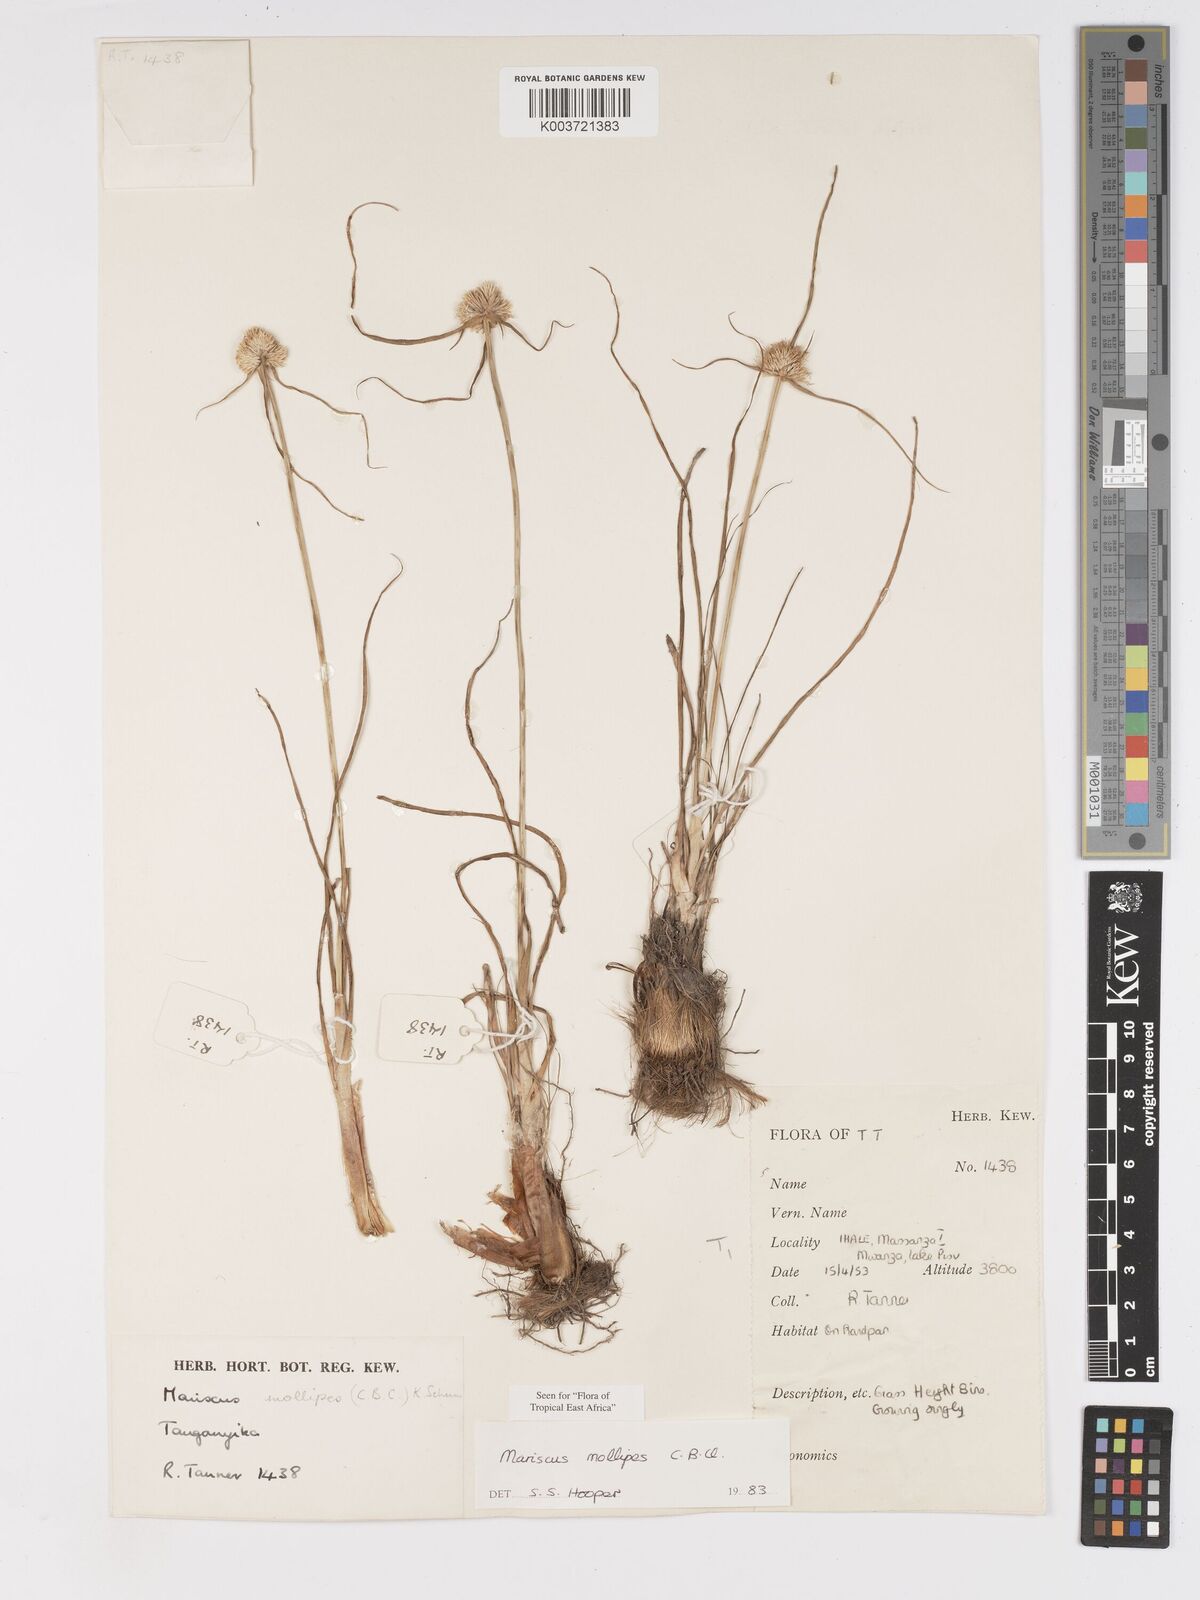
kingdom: Plantae
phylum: Tracheophyta
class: Liliopsida
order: Poales
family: Cyperaceae
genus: Cyperus
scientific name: Cyperus mollipes
